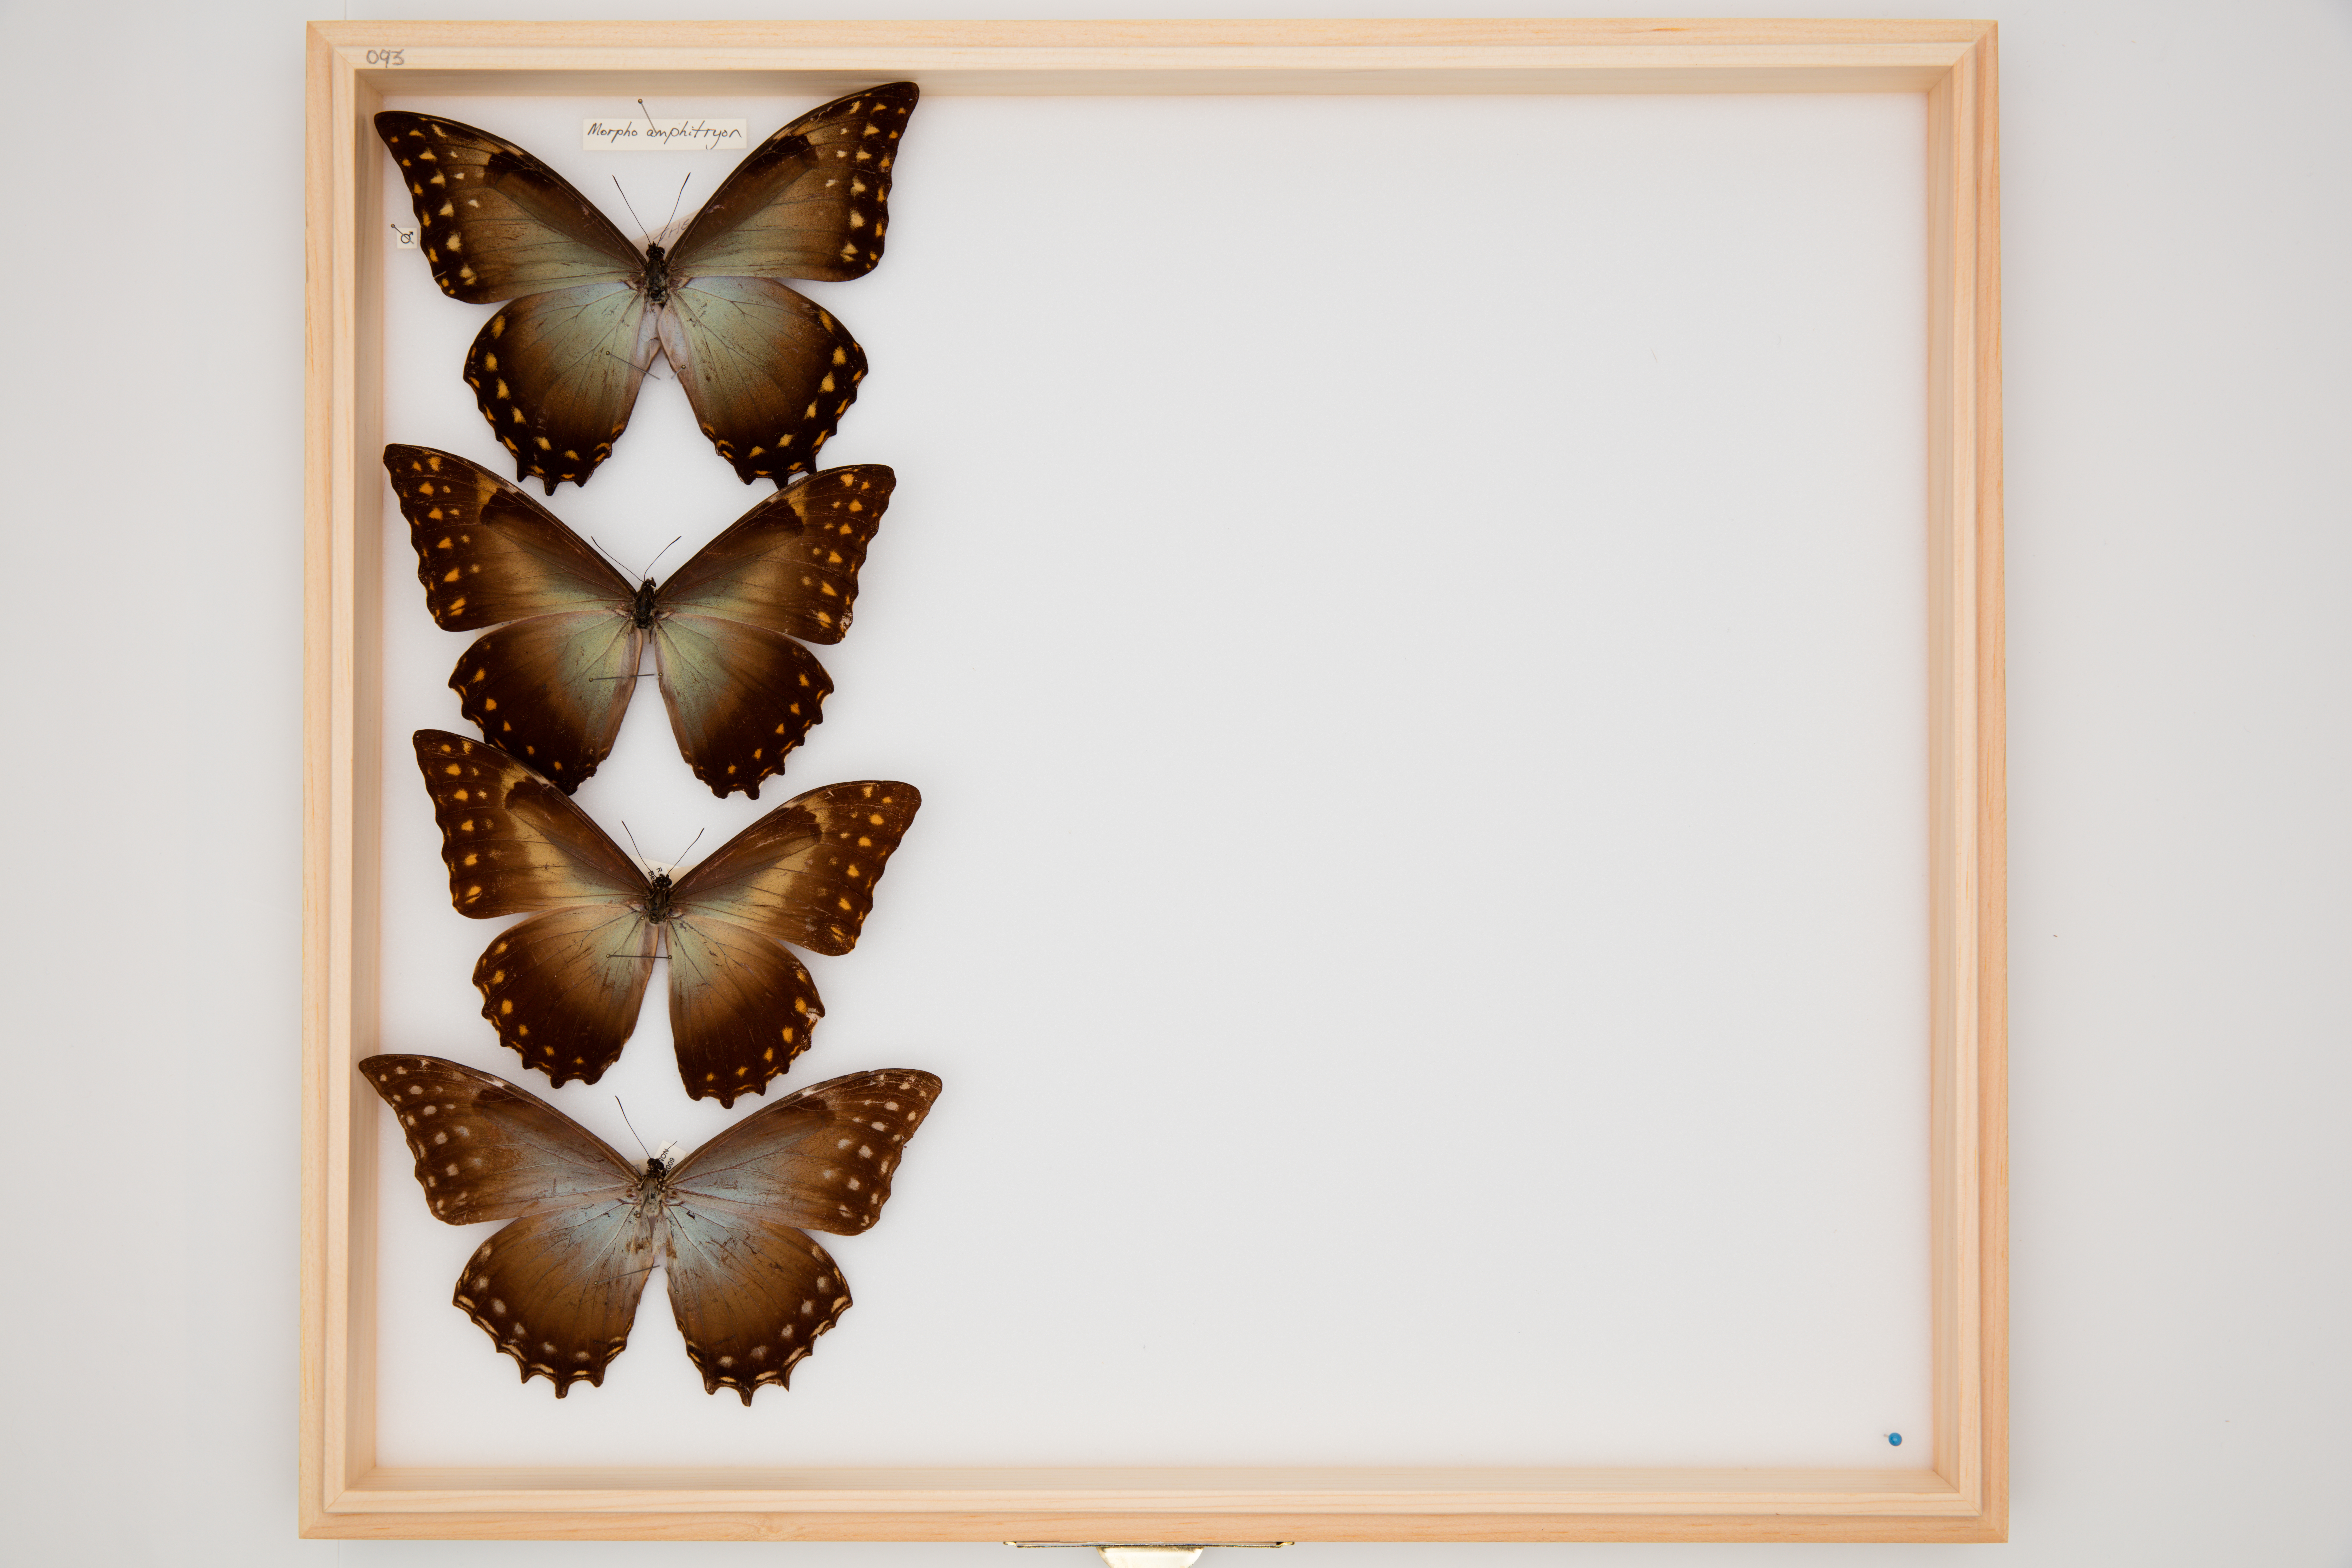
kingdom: Animalia
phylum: Arthropoda
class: Insecta
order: Lepidoptera
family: Nymphalidae
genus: Morpho
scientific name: Morpho amphitrion
